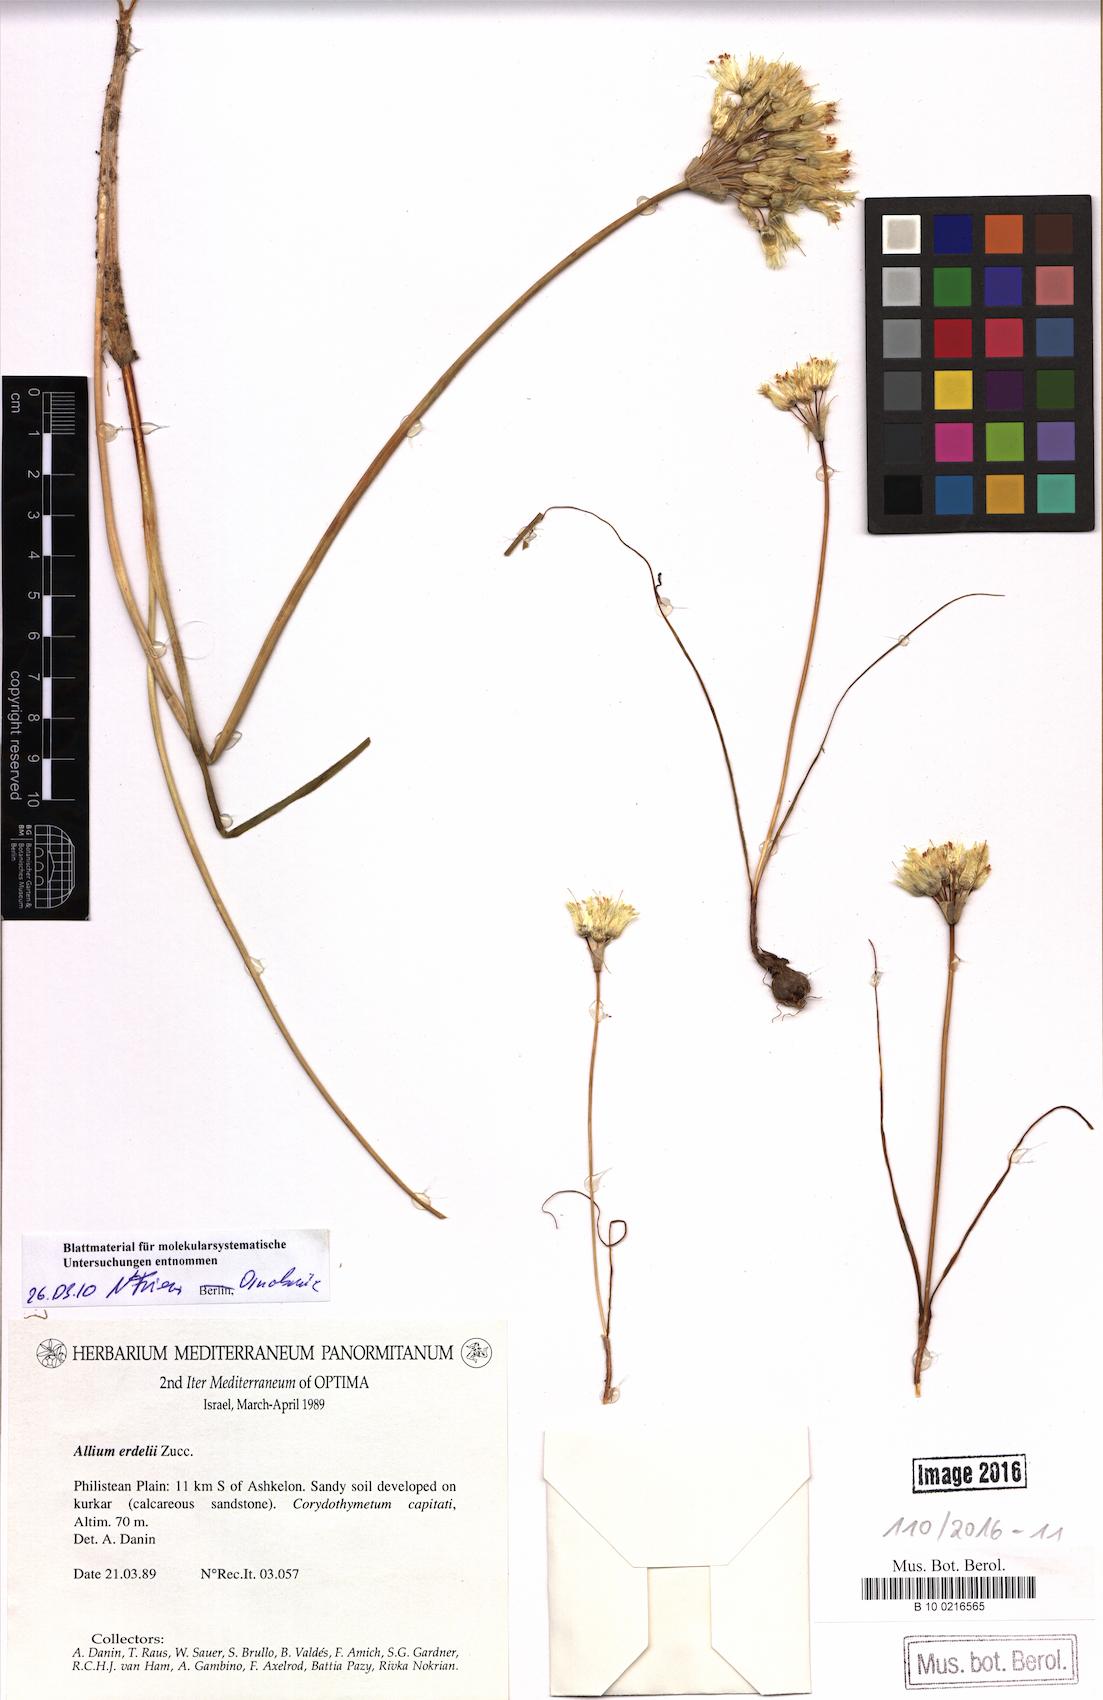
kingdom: Plantae
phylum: Tracheophyta
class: Liliopsida
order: Asparagales
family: Amaryllidaceae
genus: Allium
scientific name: Allium erdelii
